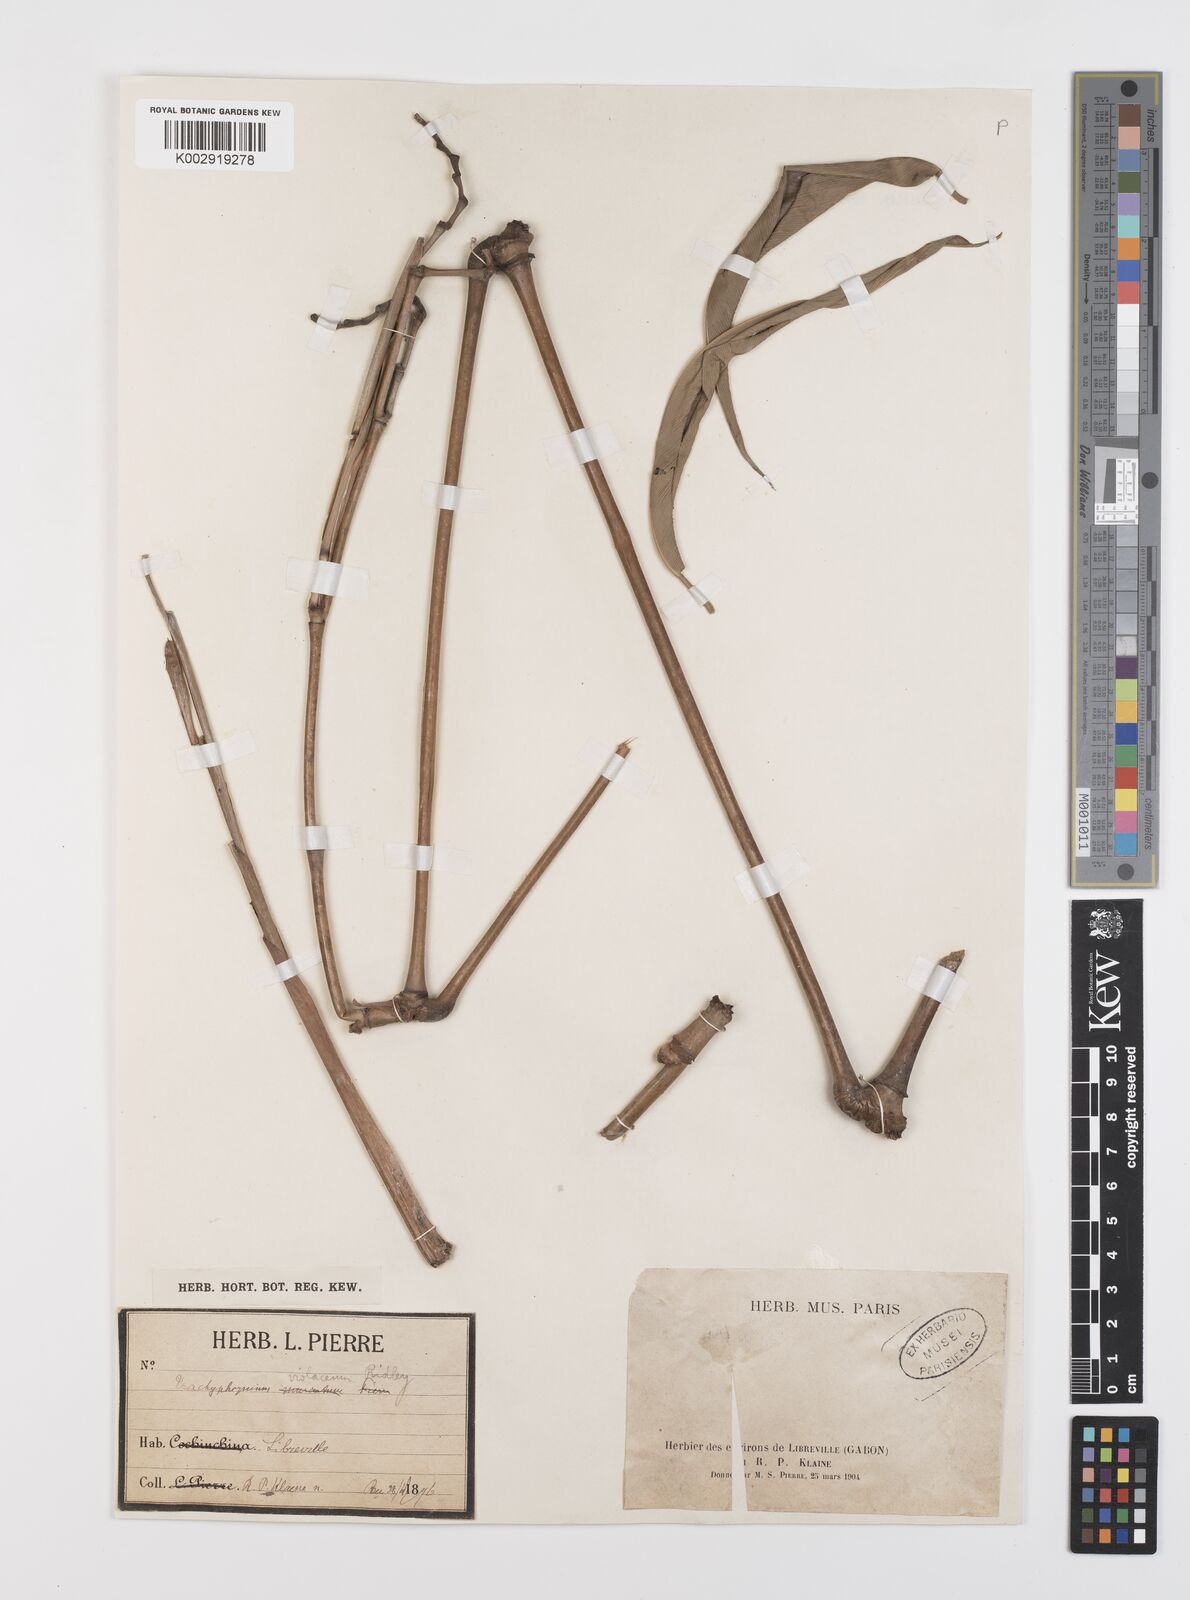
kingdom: Plantae
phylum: Tracheophyta
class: Liliopsida
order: Zingiberales
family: Marantaceae
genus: Hypselodelphys
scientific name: Hypselodelphys poggeana
